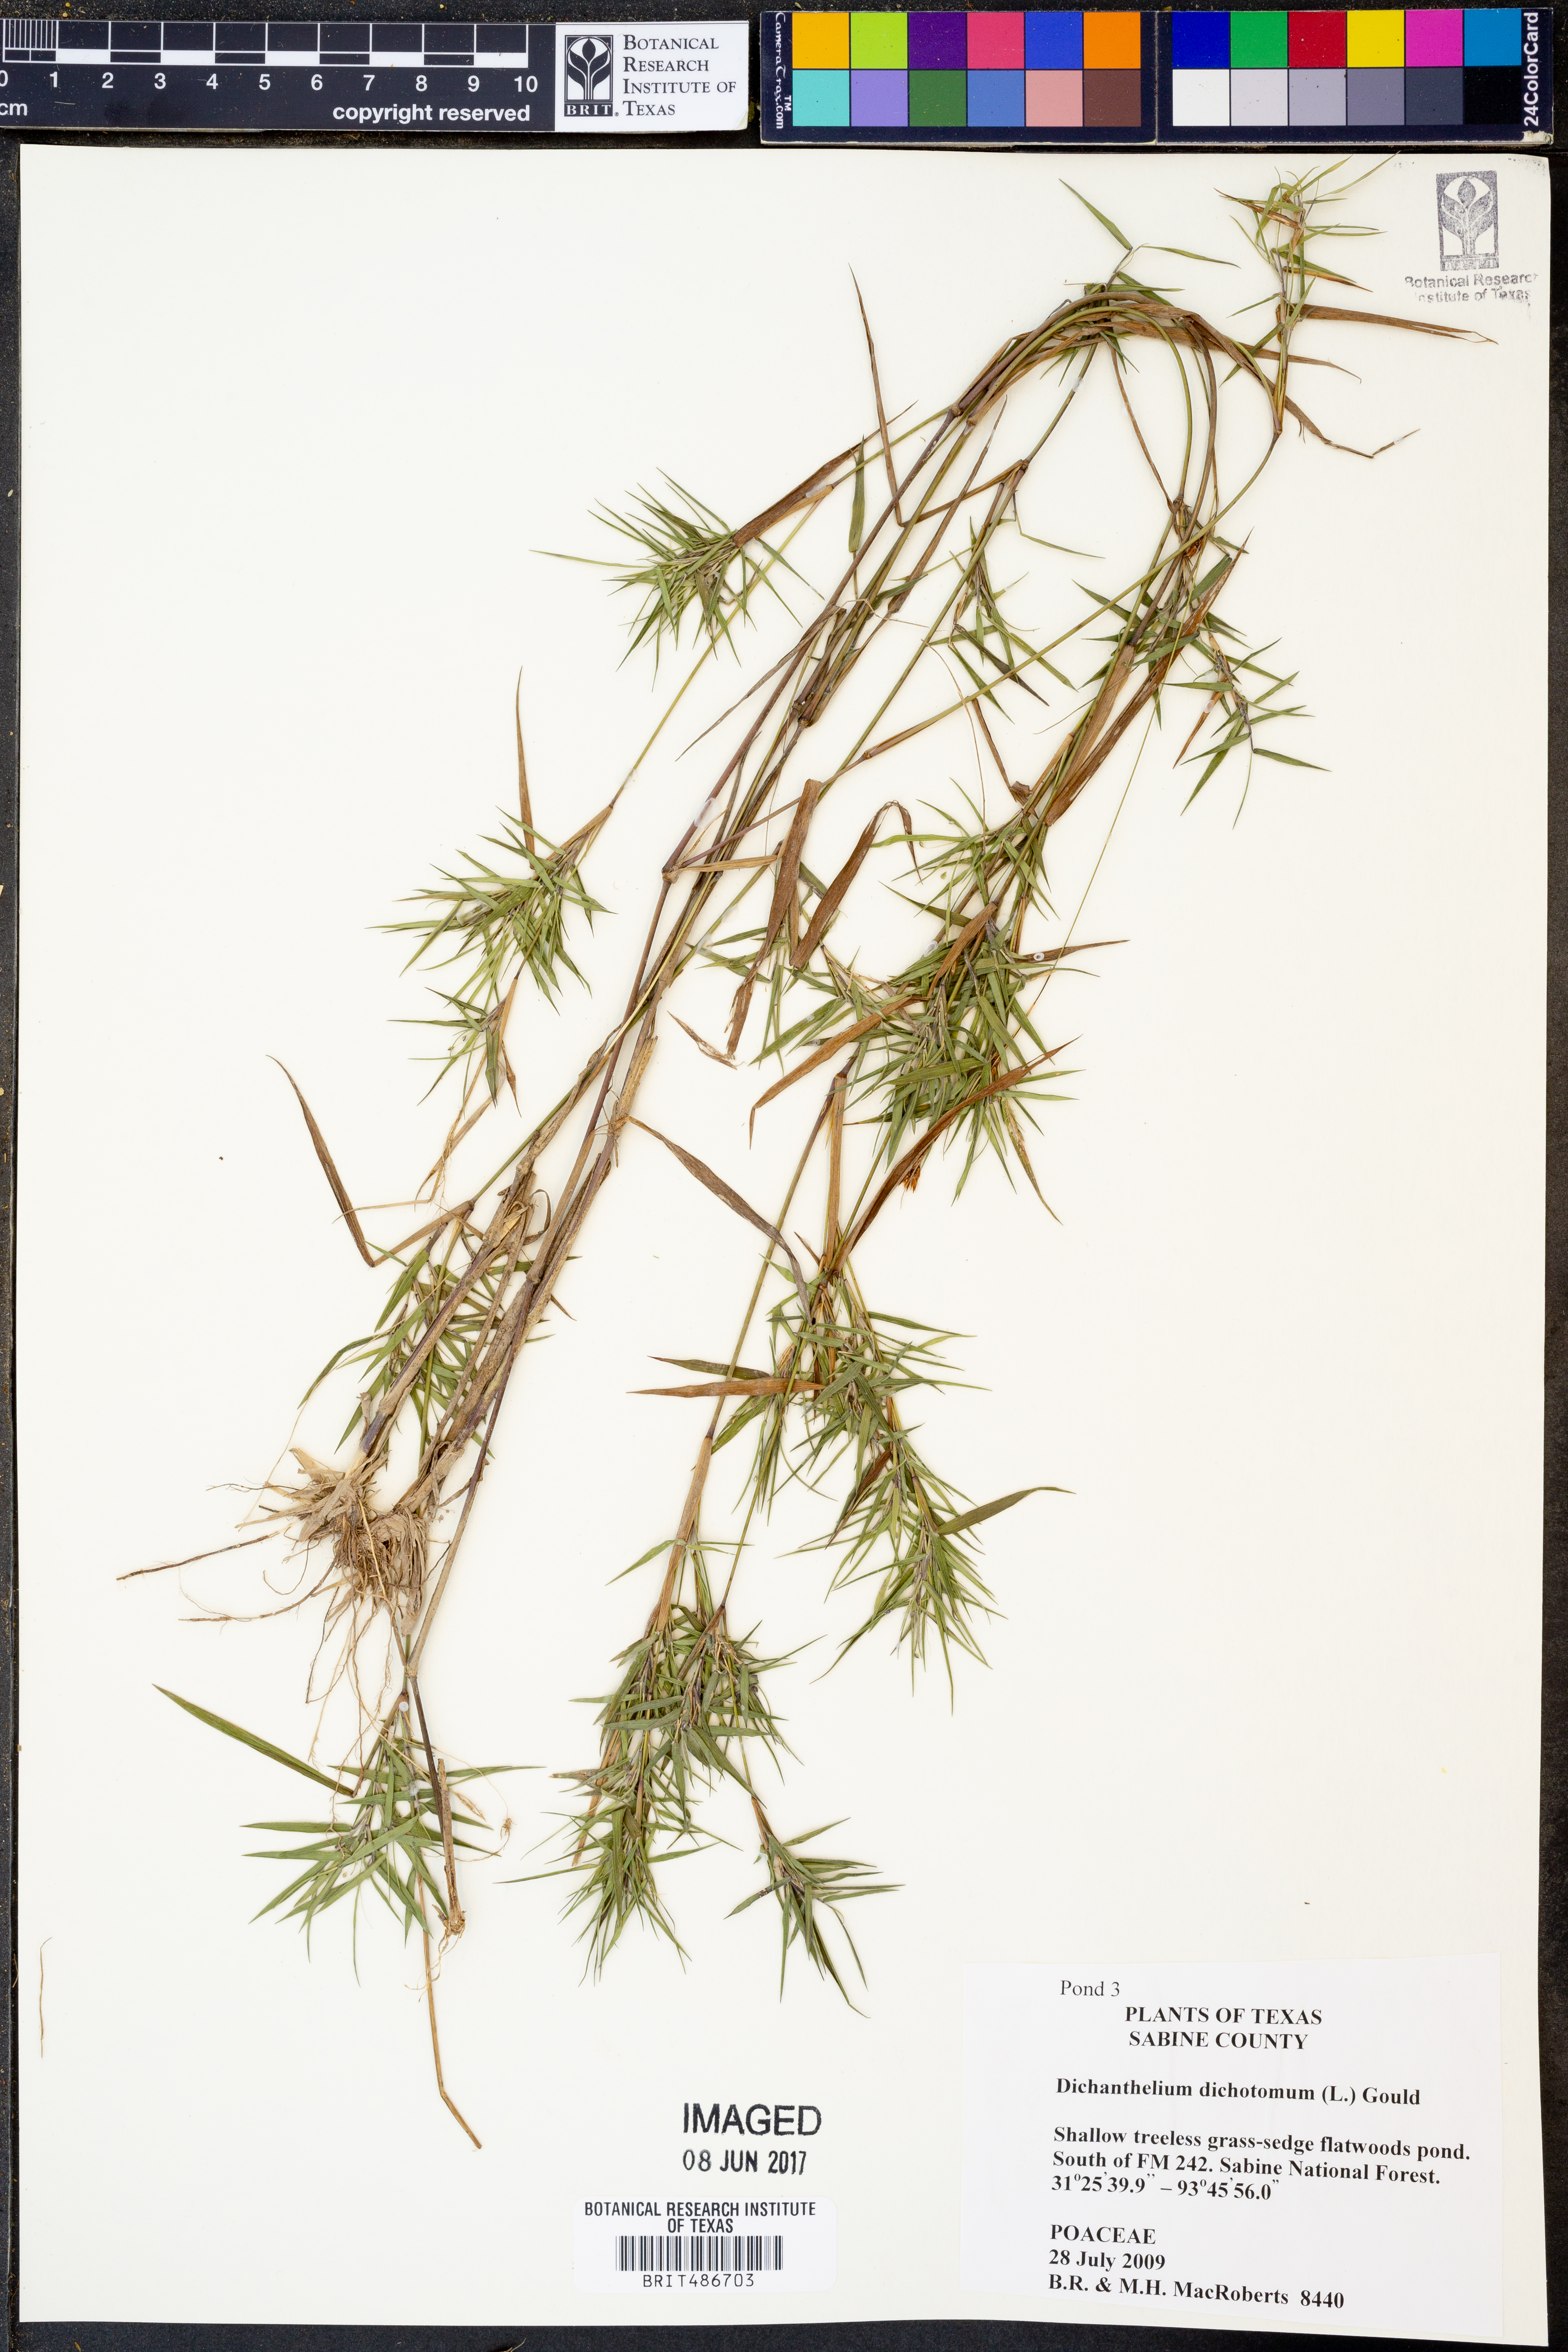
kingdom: Plantae
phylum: Tracheophyta
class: Liliopsida
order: Poales
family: Poaceae
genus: Dichanthelium
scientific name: Dichanthelium dichotomum
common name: Cypress panicgrass
